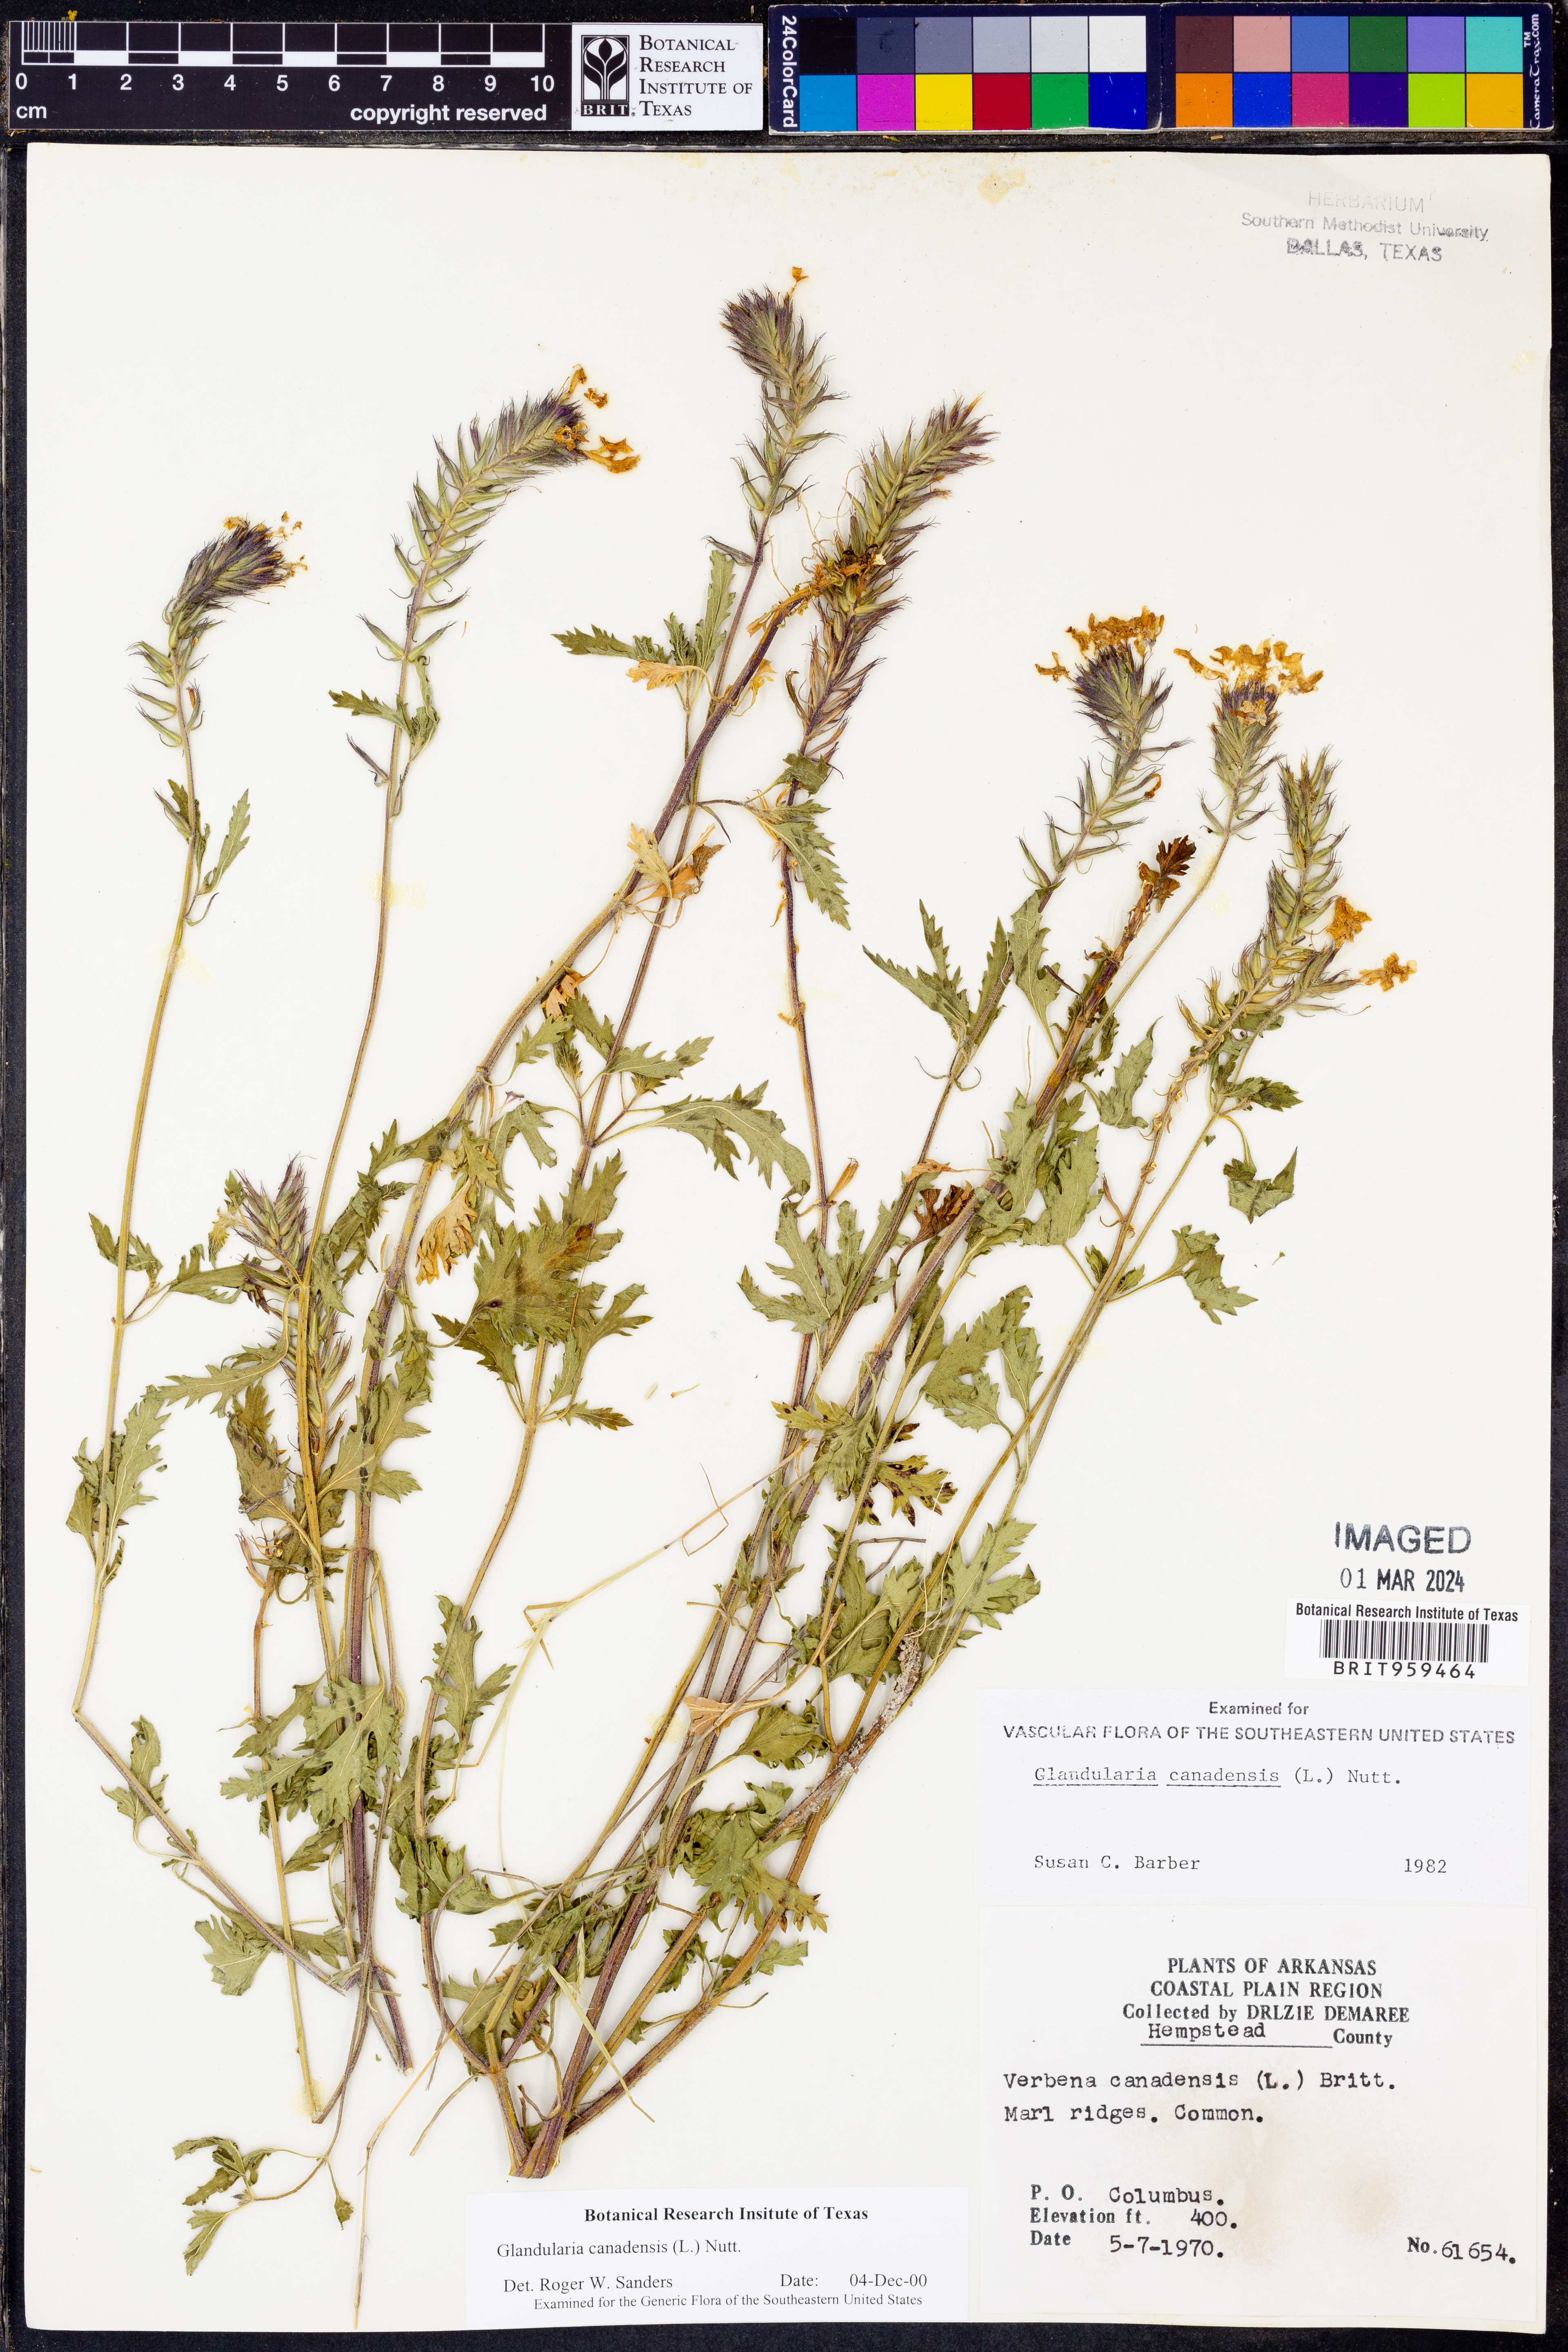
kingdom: Plantae
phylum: Tracheophyta
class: Magnoliopsida
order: Lamiales
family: Verbenaceae
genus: Verbena
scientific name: Verbena canadensis
